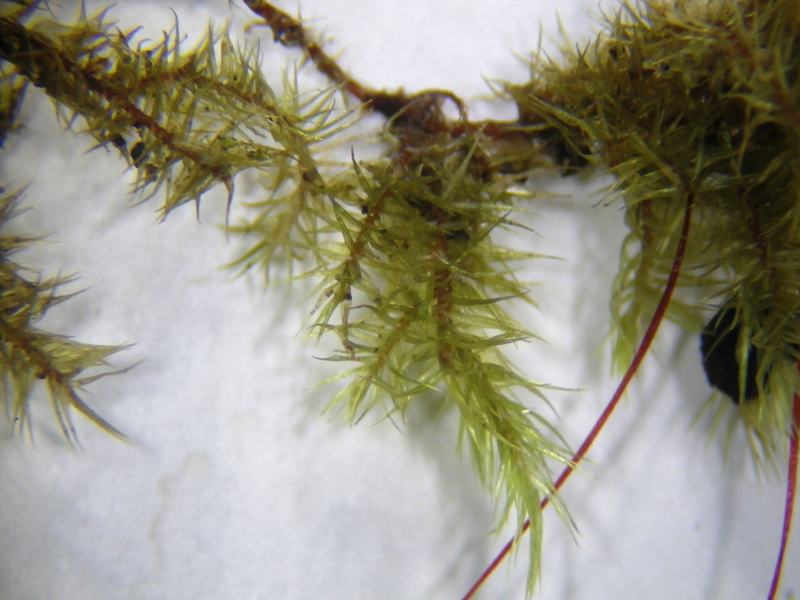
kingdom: Plantae
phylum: Bryophyta
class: Bryopsida
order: Hypnales
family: Sematophyllaceae
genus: Acroporium
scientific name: Acroporium johannis-winkleri
